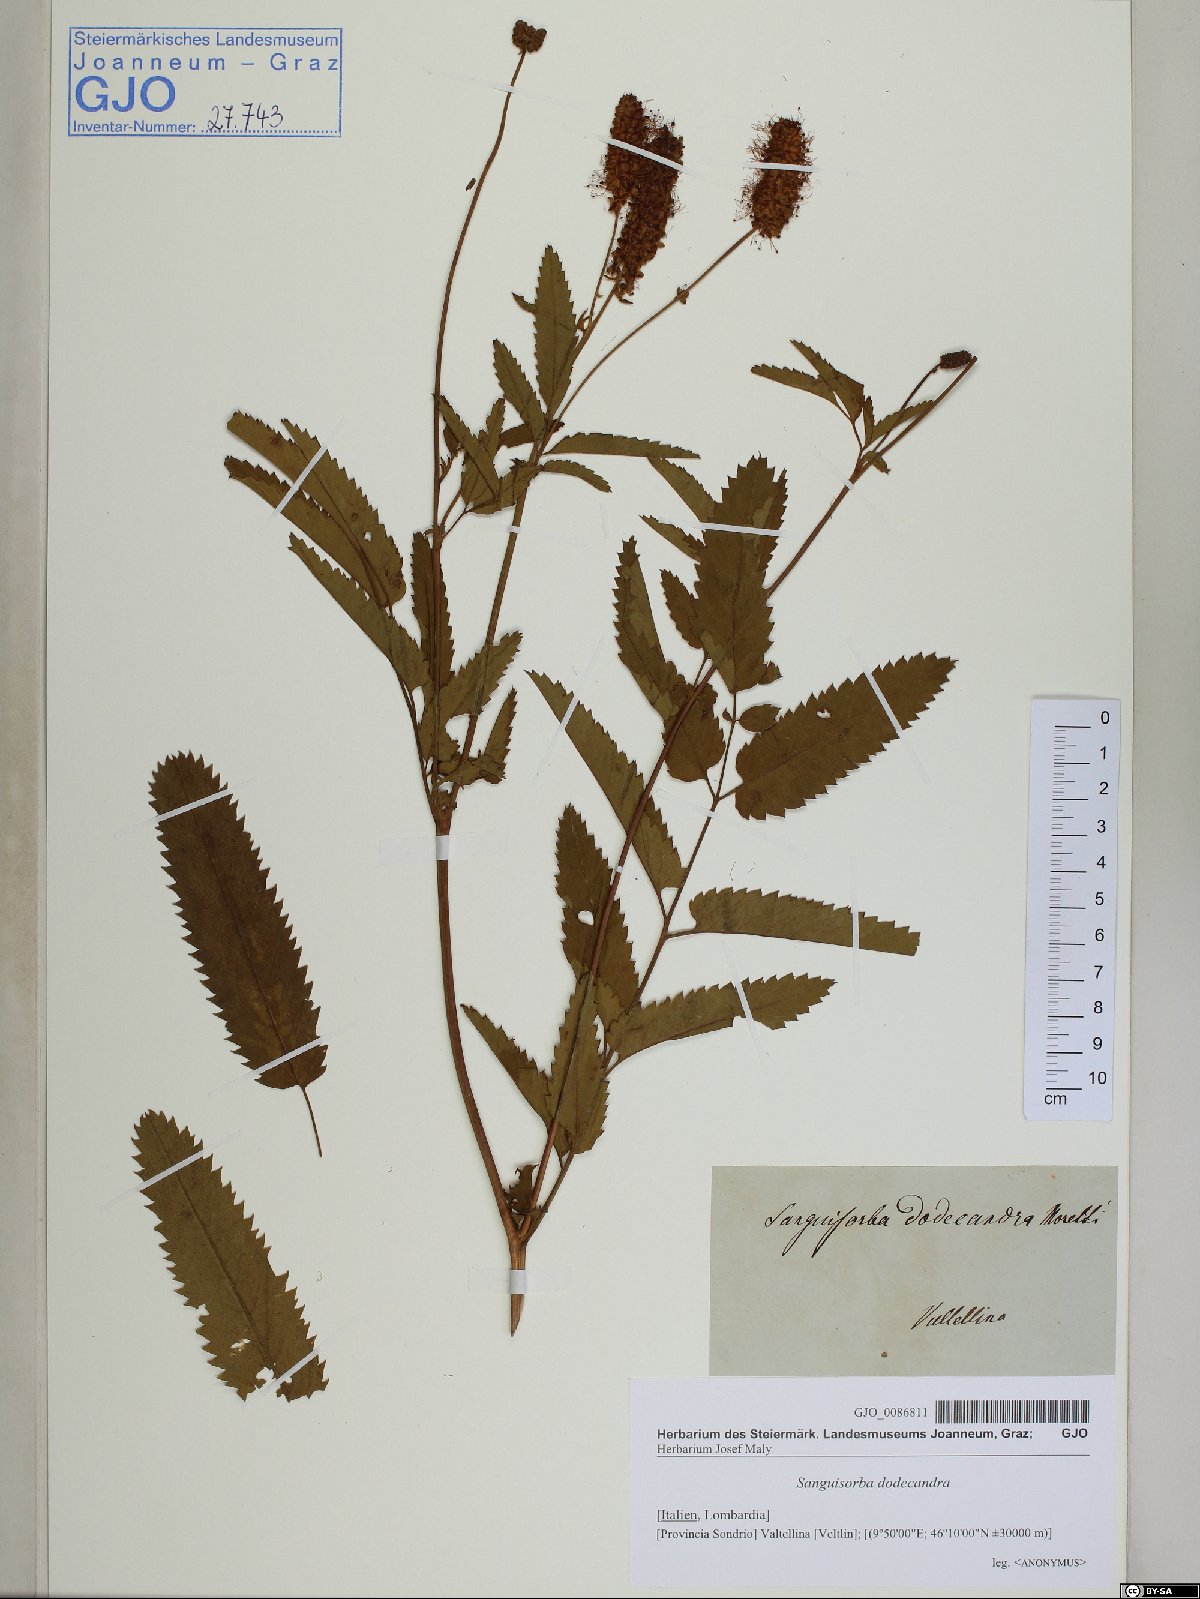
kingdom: Plantae
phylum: Tracheophyta
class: Magnoliopsida
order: Rosales
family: Rosaceae
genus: Poterium
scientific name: Poterium dodecandrum
